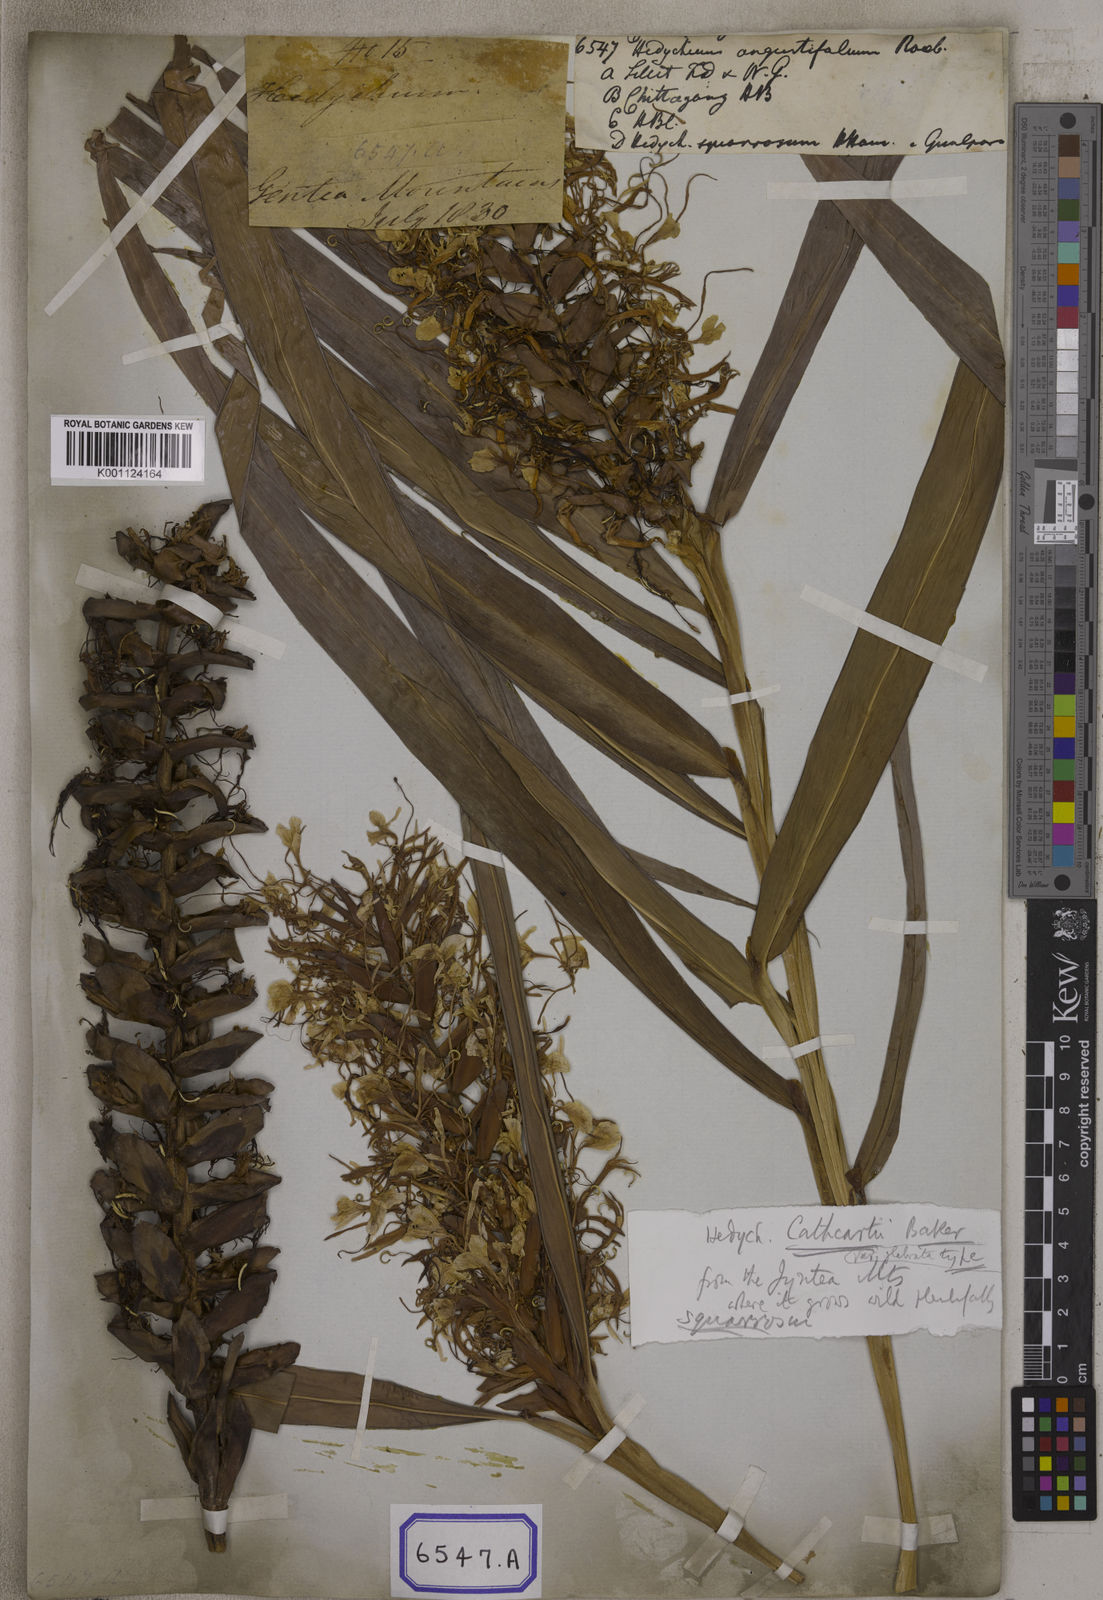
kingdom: Plantae
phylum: Tracheophyta
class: Liliopsida
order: Zingiberales
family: Zingiberaceae
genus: Hedychium
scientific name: Hedychium coccineum
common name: Red ginger-lily
